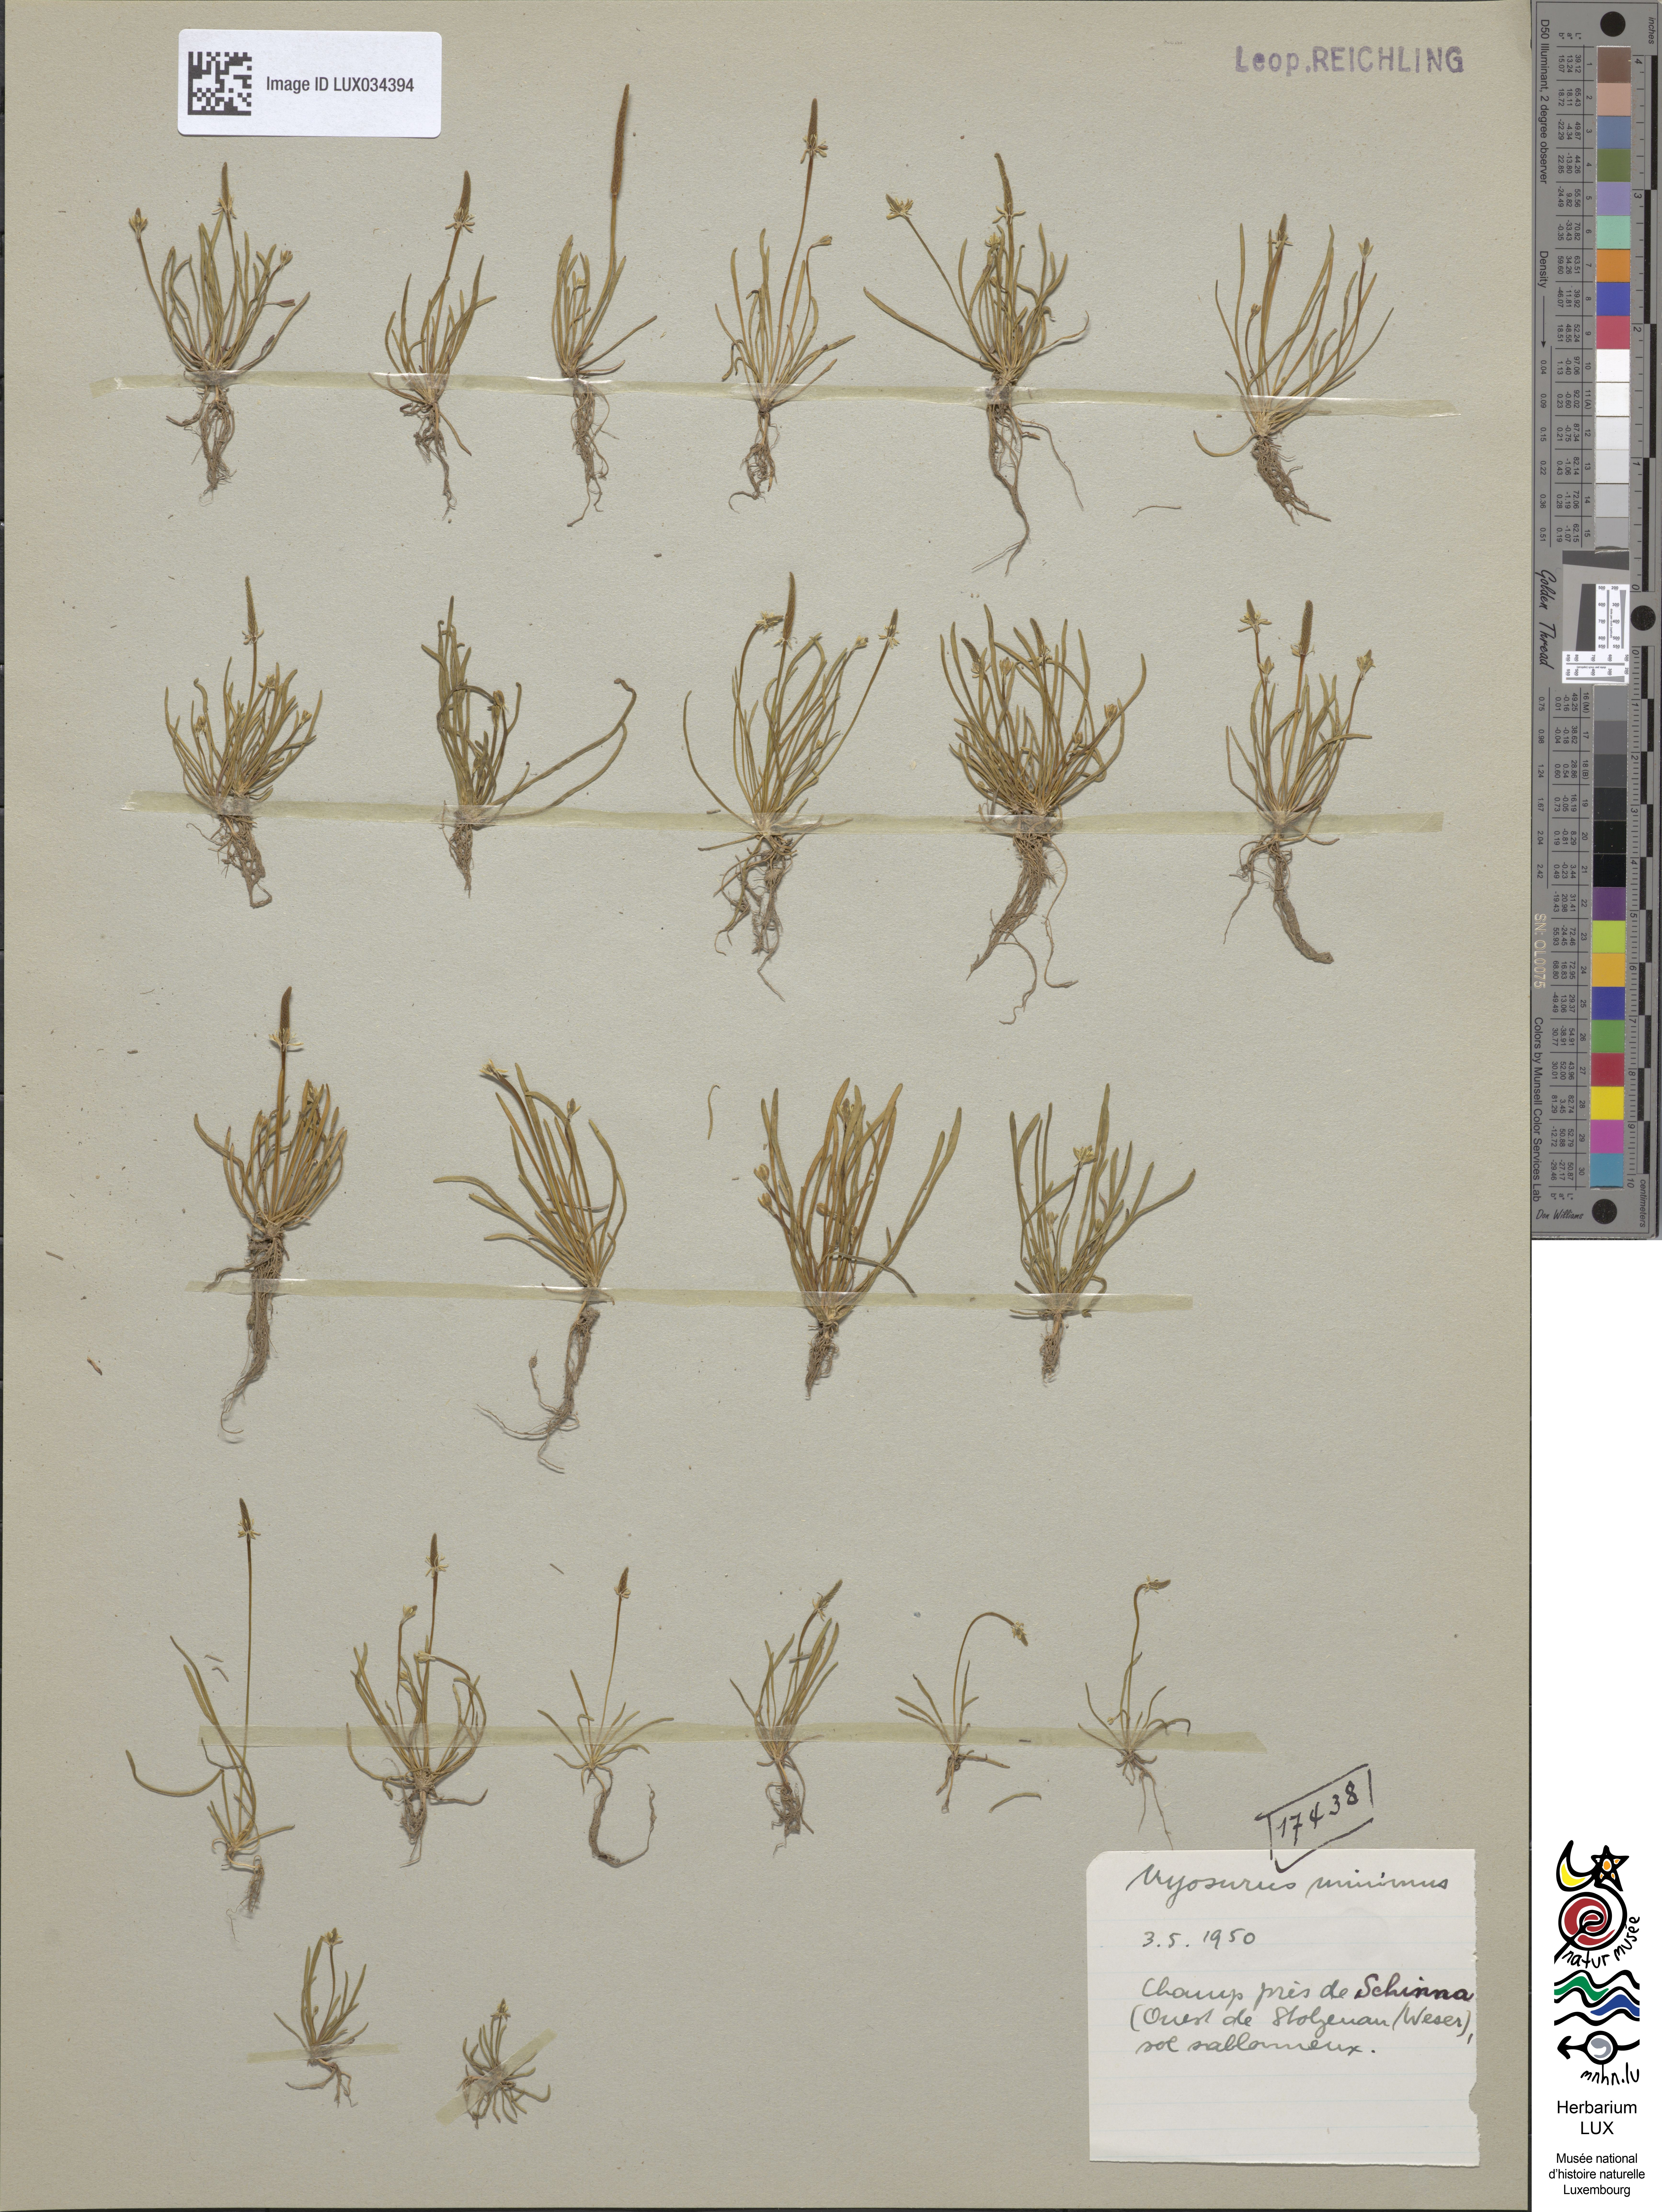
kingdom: Plantae
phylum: Tracheophyta
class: Magnoliopsida
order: Ranunculales
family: Ranunculaceae
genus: Myosurus
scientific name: Myosurus minimus
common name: Mousetail
